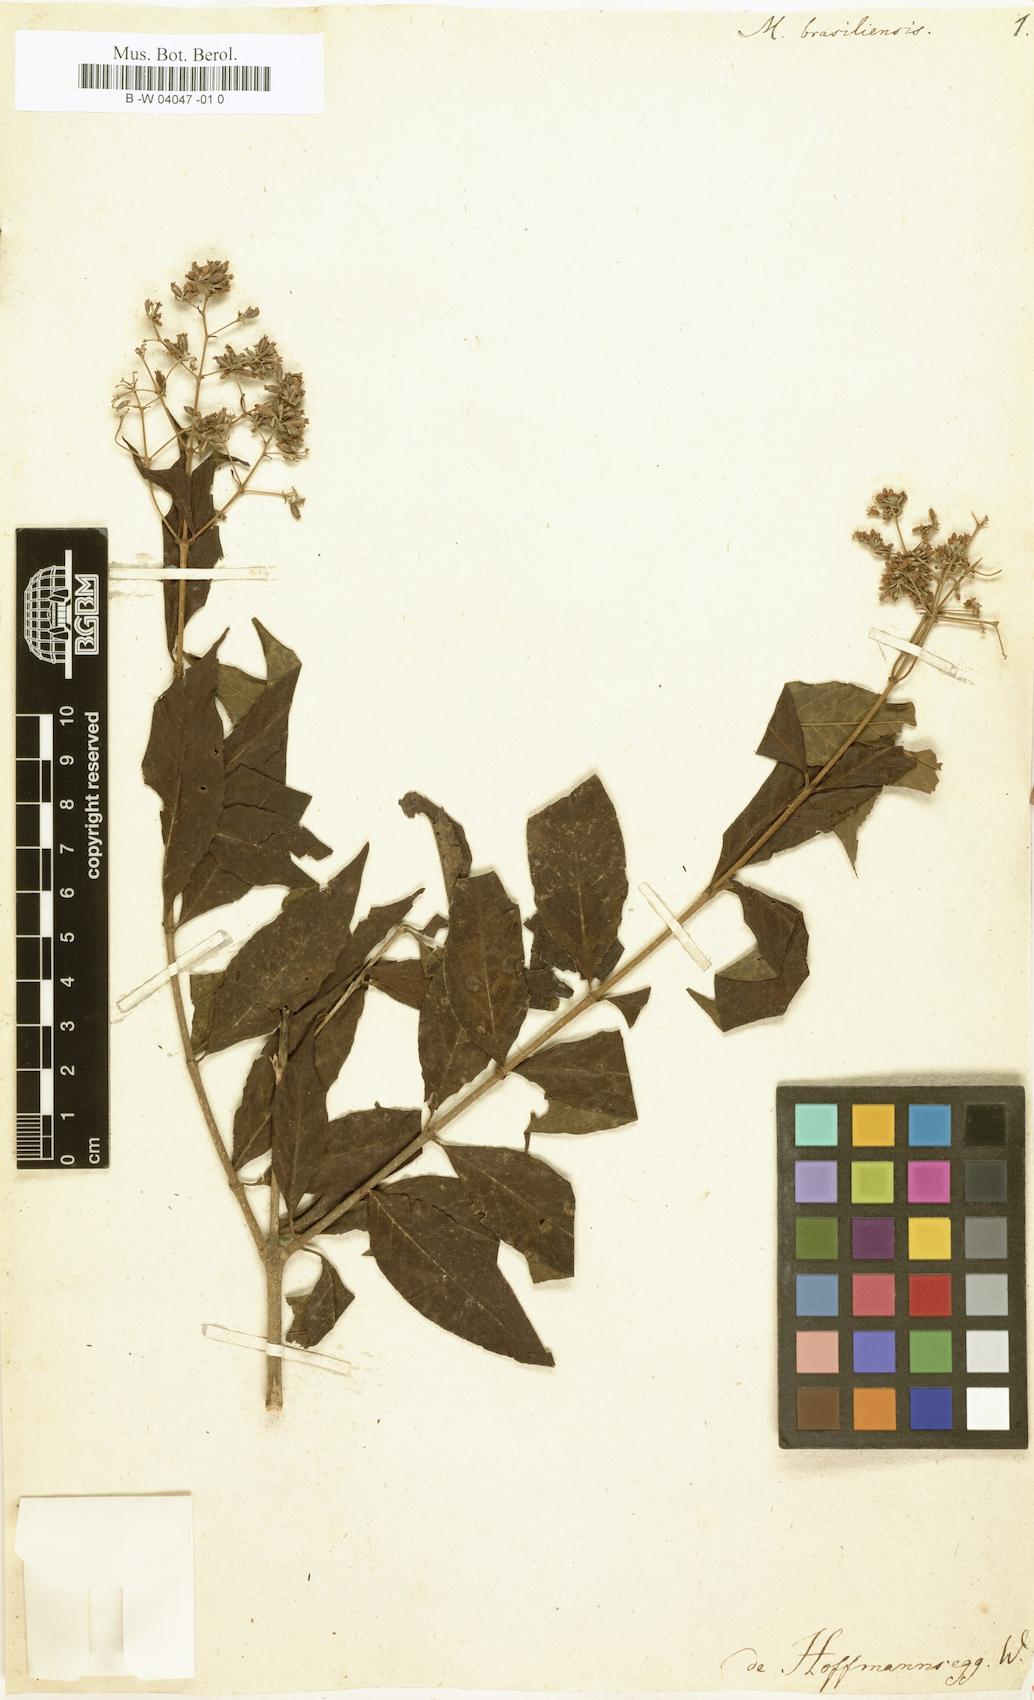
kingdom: Plantae
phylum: Tracheophyta
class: Magnoliopsida
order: Gentianales
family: Rubiaceae
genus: Machaonia
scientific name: Machaonia brasiliensis
